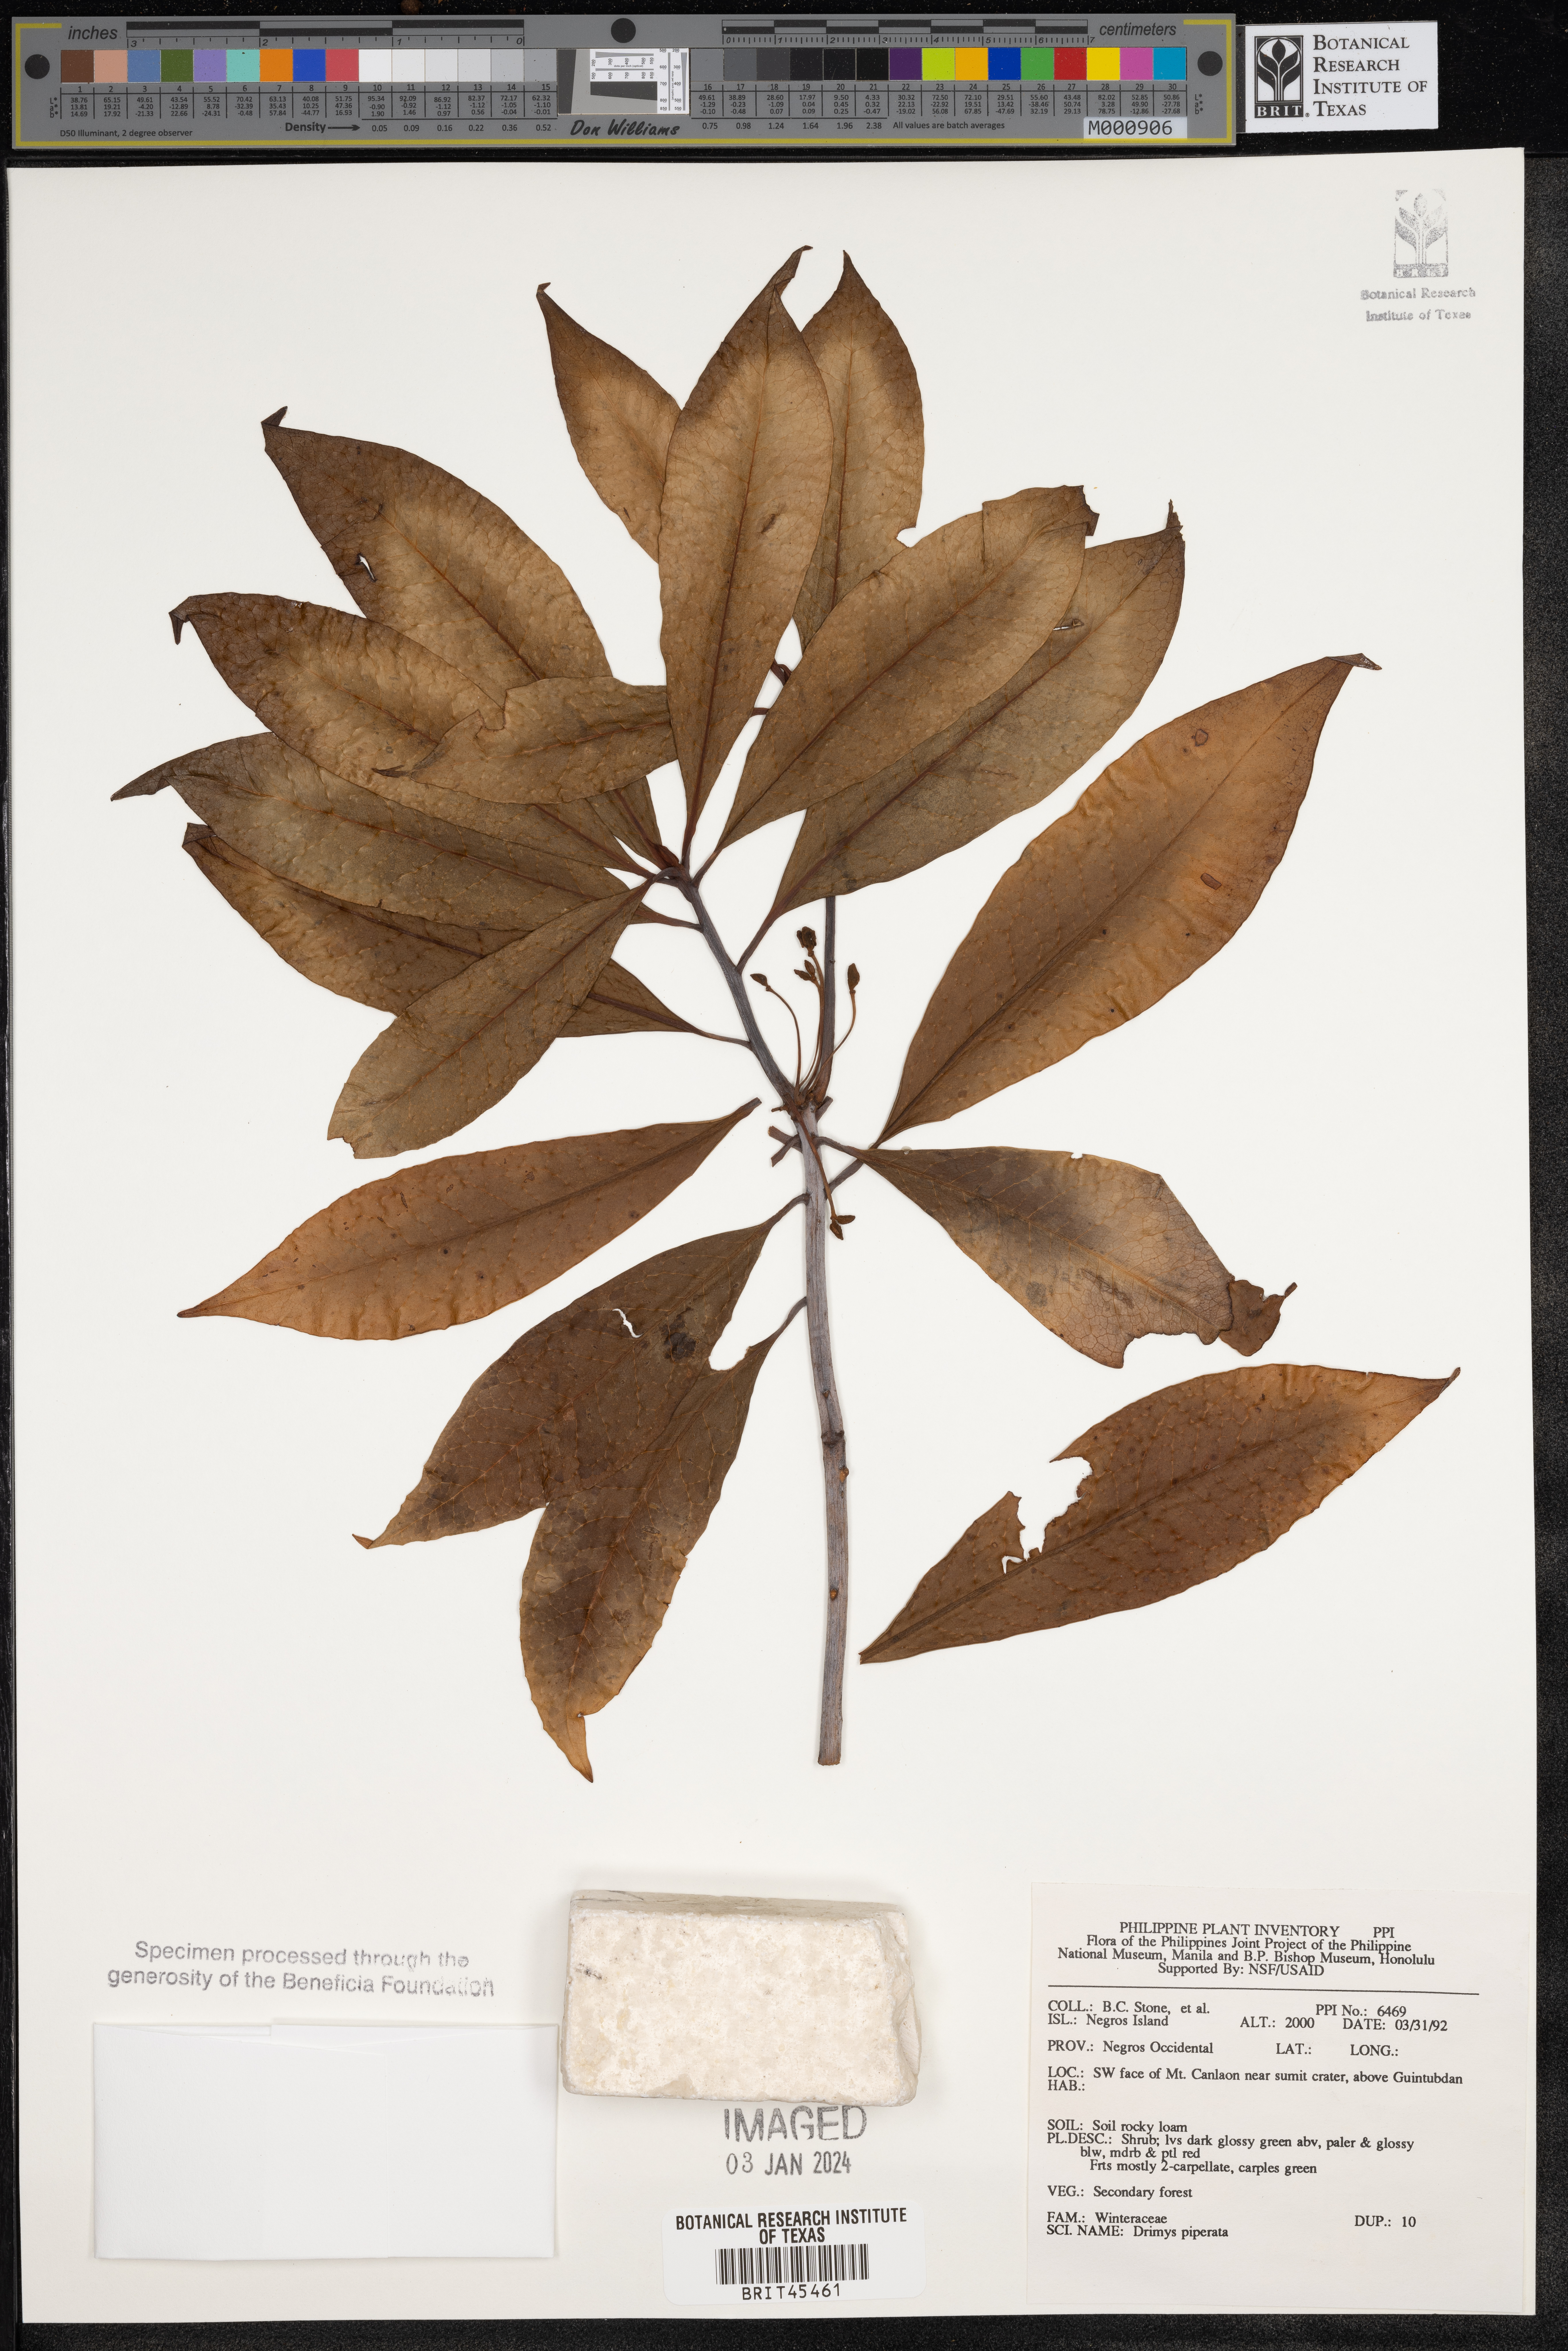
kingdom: Plantae
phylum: Tracheophyta
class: Magnoliopsida
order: Canellales
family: Winteraceae
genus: Drimys
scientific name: Drimys piperita
